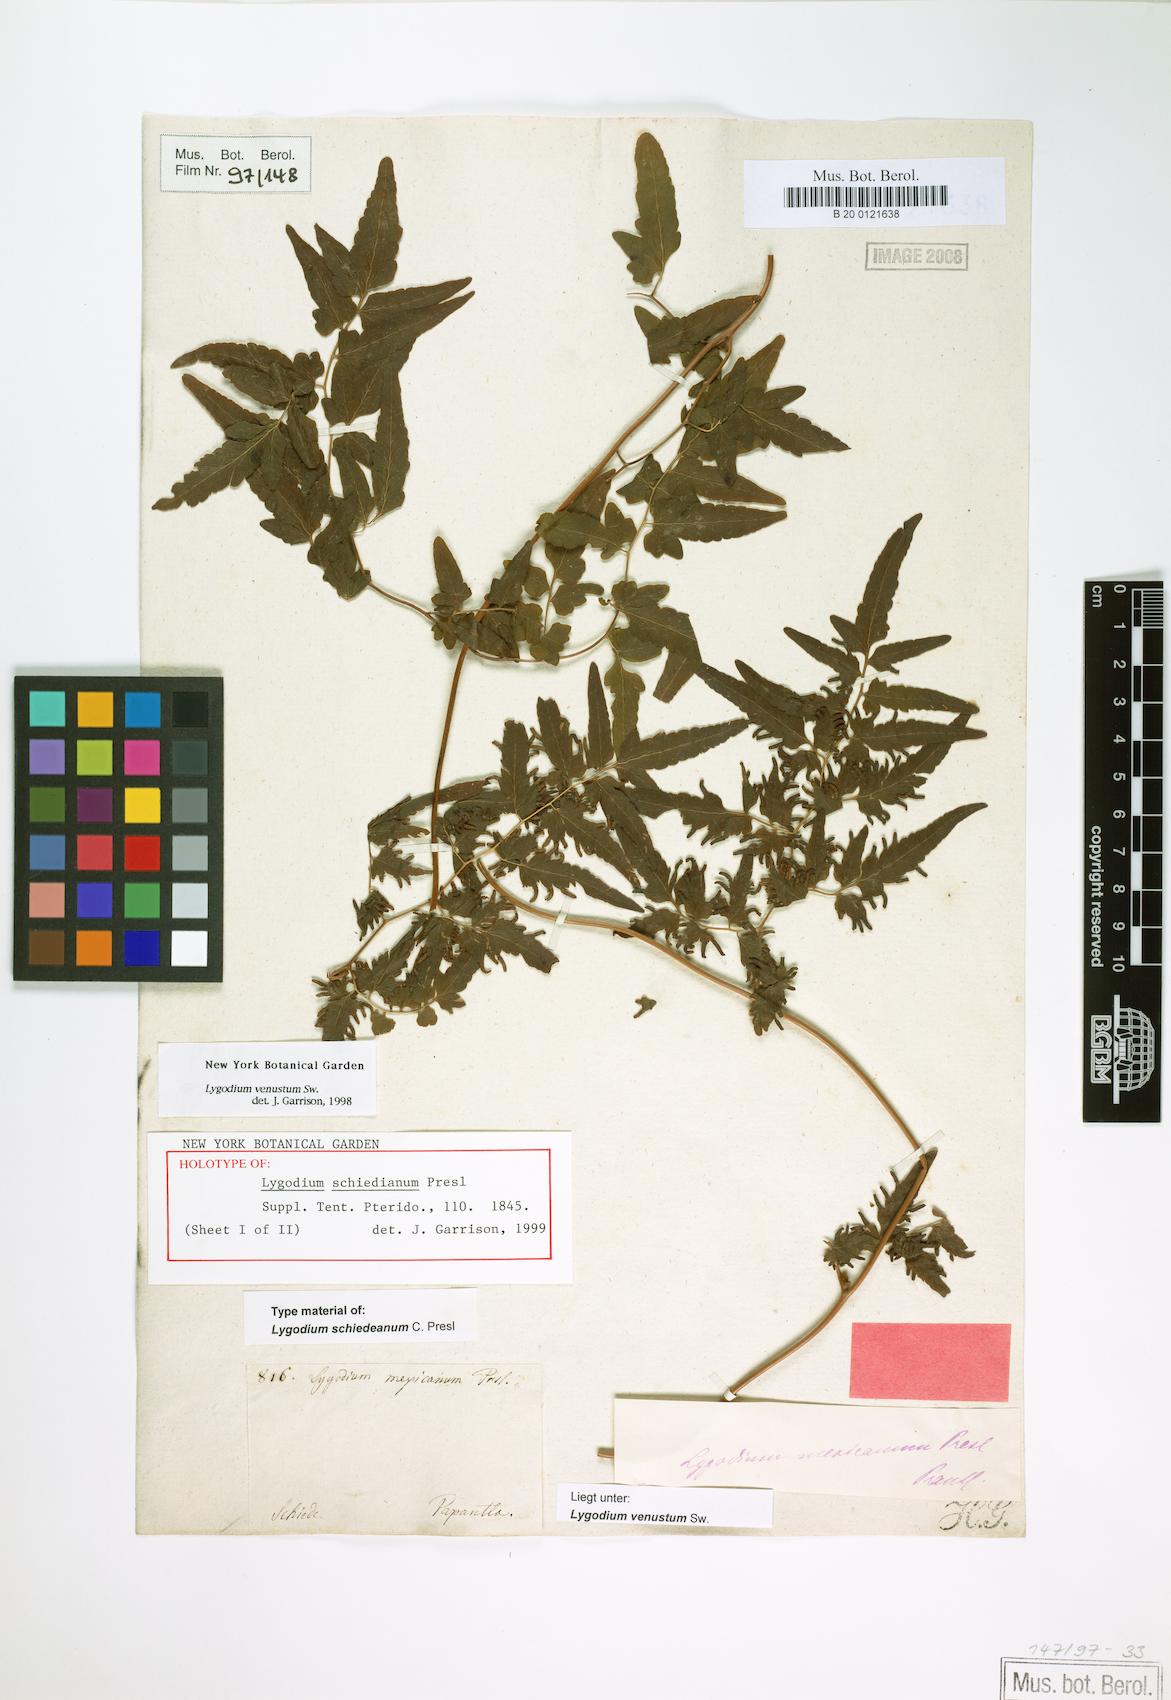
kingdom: Plantae
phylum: Tracheophyta
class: Polypodiopsida
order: Schizaeales
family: Lygodiaceae
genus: Lygodium
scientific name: Lygodium venustum
